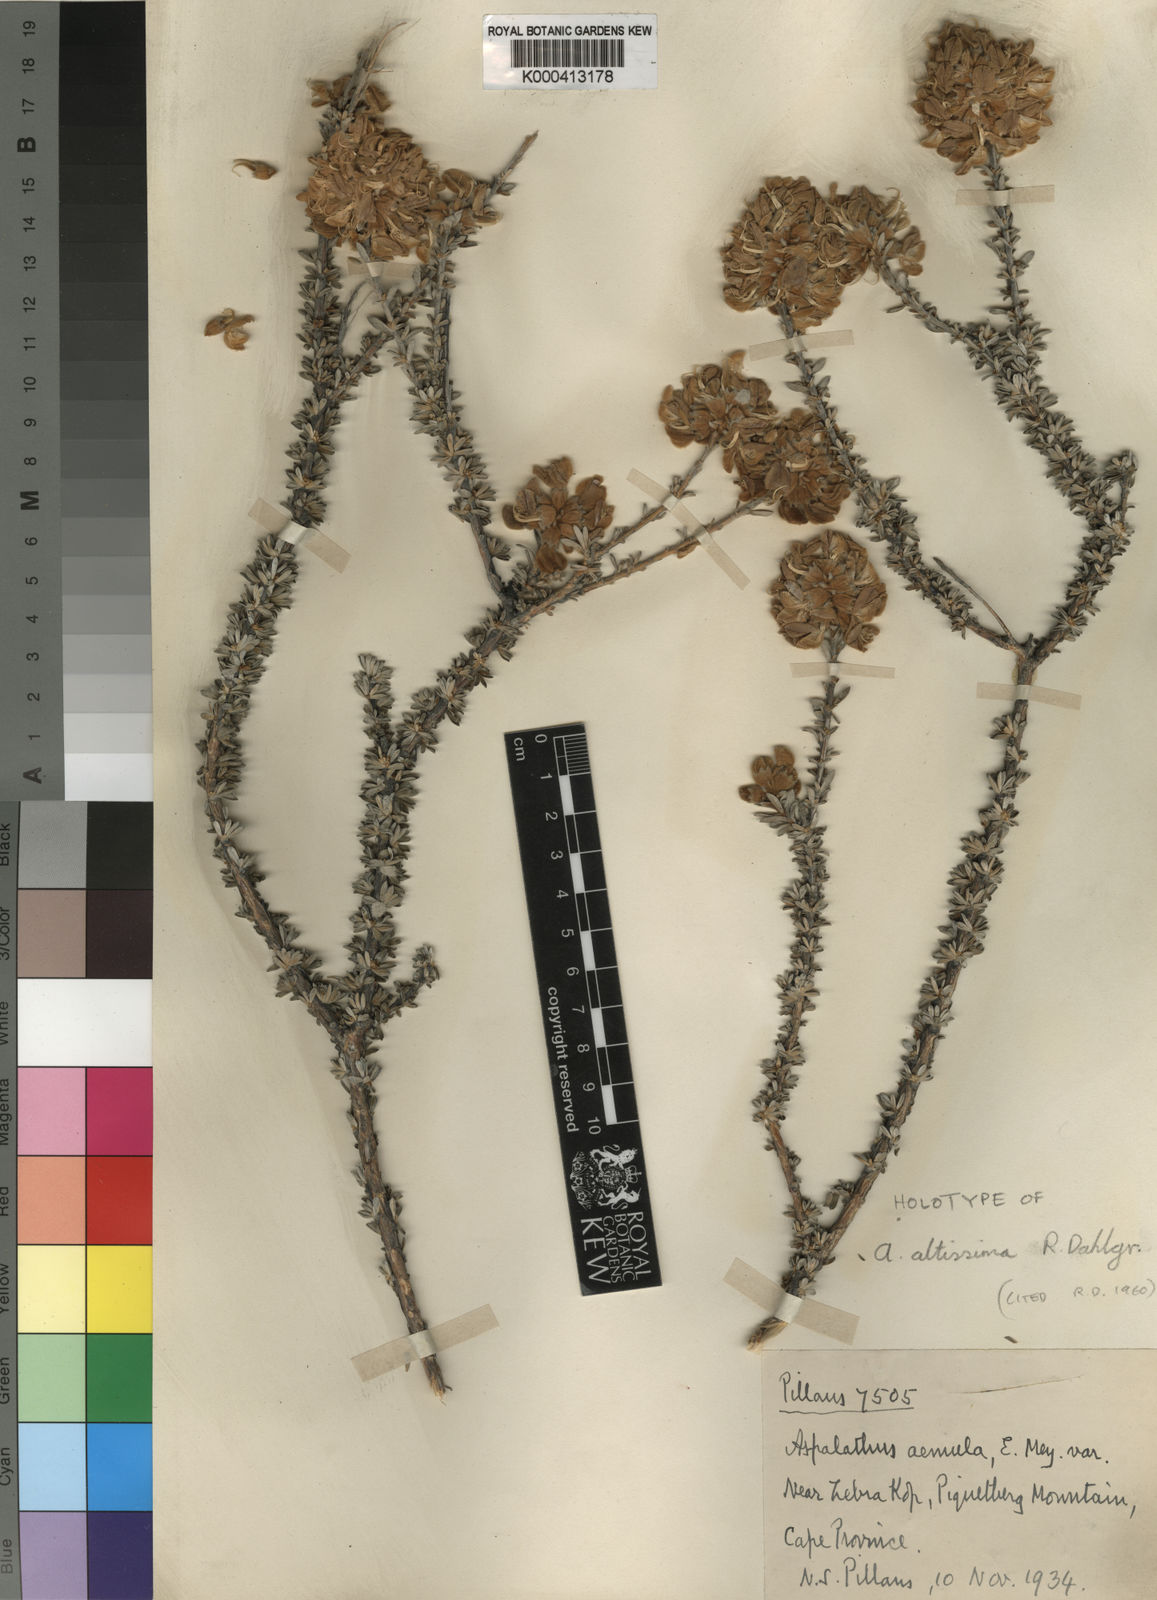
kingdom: Plantae
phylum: Tracheophyta
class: Magnoliopsida
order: Fabales
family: Fabaceae
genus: Aspalathus
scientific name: Aspalathus altissima
